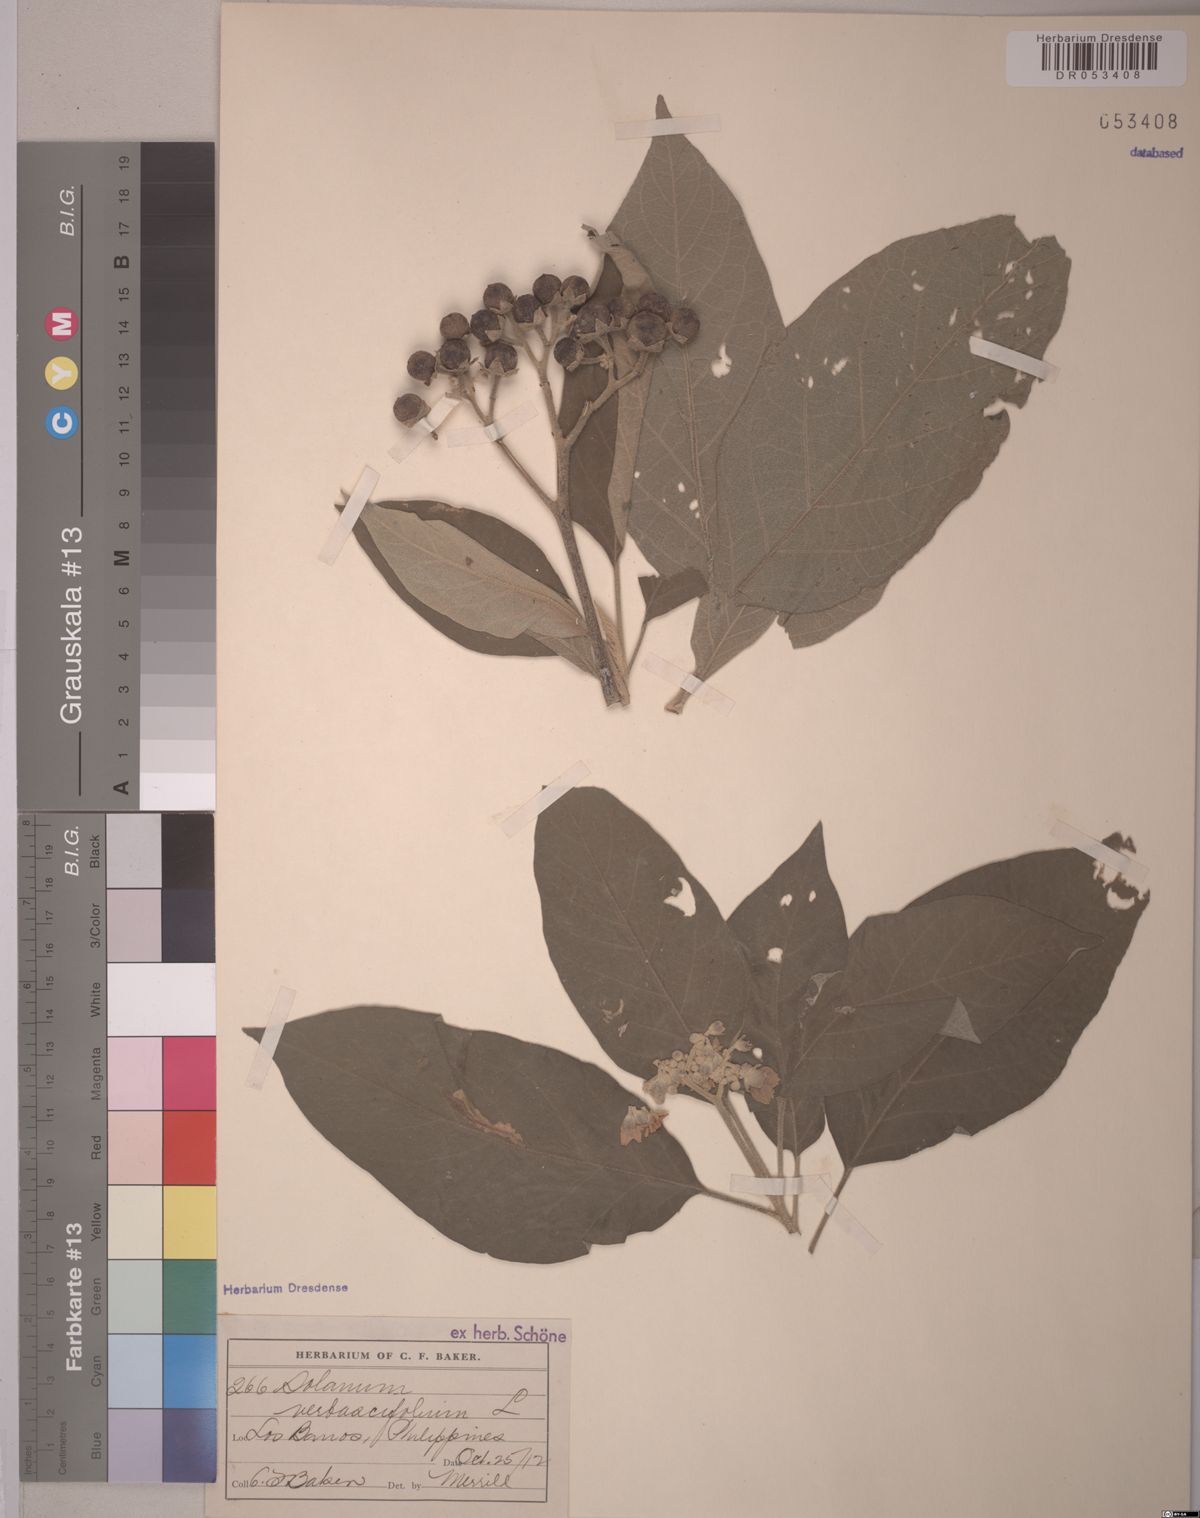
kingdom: Plantae
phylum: Tracheophyta
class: Magnoliopsida
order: Solanales
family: Solanaceae
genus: Solanum
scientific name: Solanum donianum
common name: Mullein nightshade
